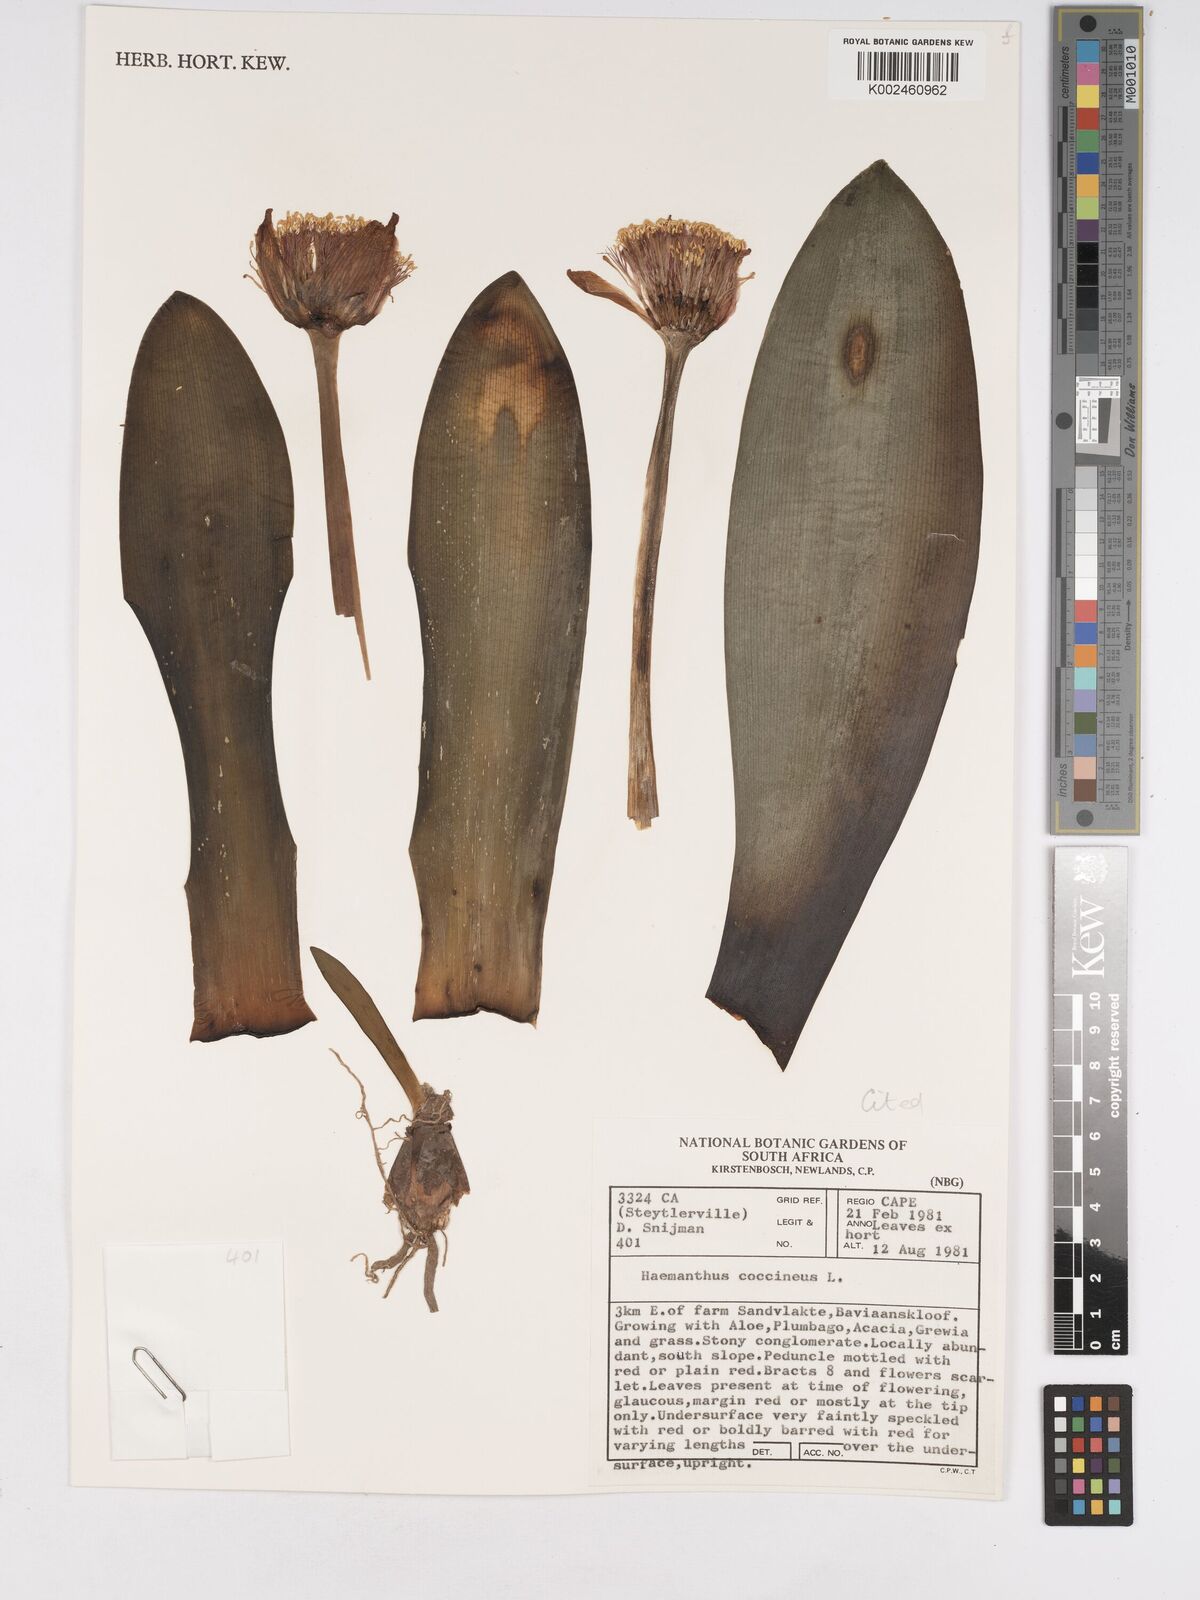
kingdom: Plantae
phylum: Tracheophyta
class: Liliopsida
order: Asparagales
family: Amaryllidaceae
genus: Haemanthus
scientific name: Haemanthus coccineus
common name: Cape-tulip
